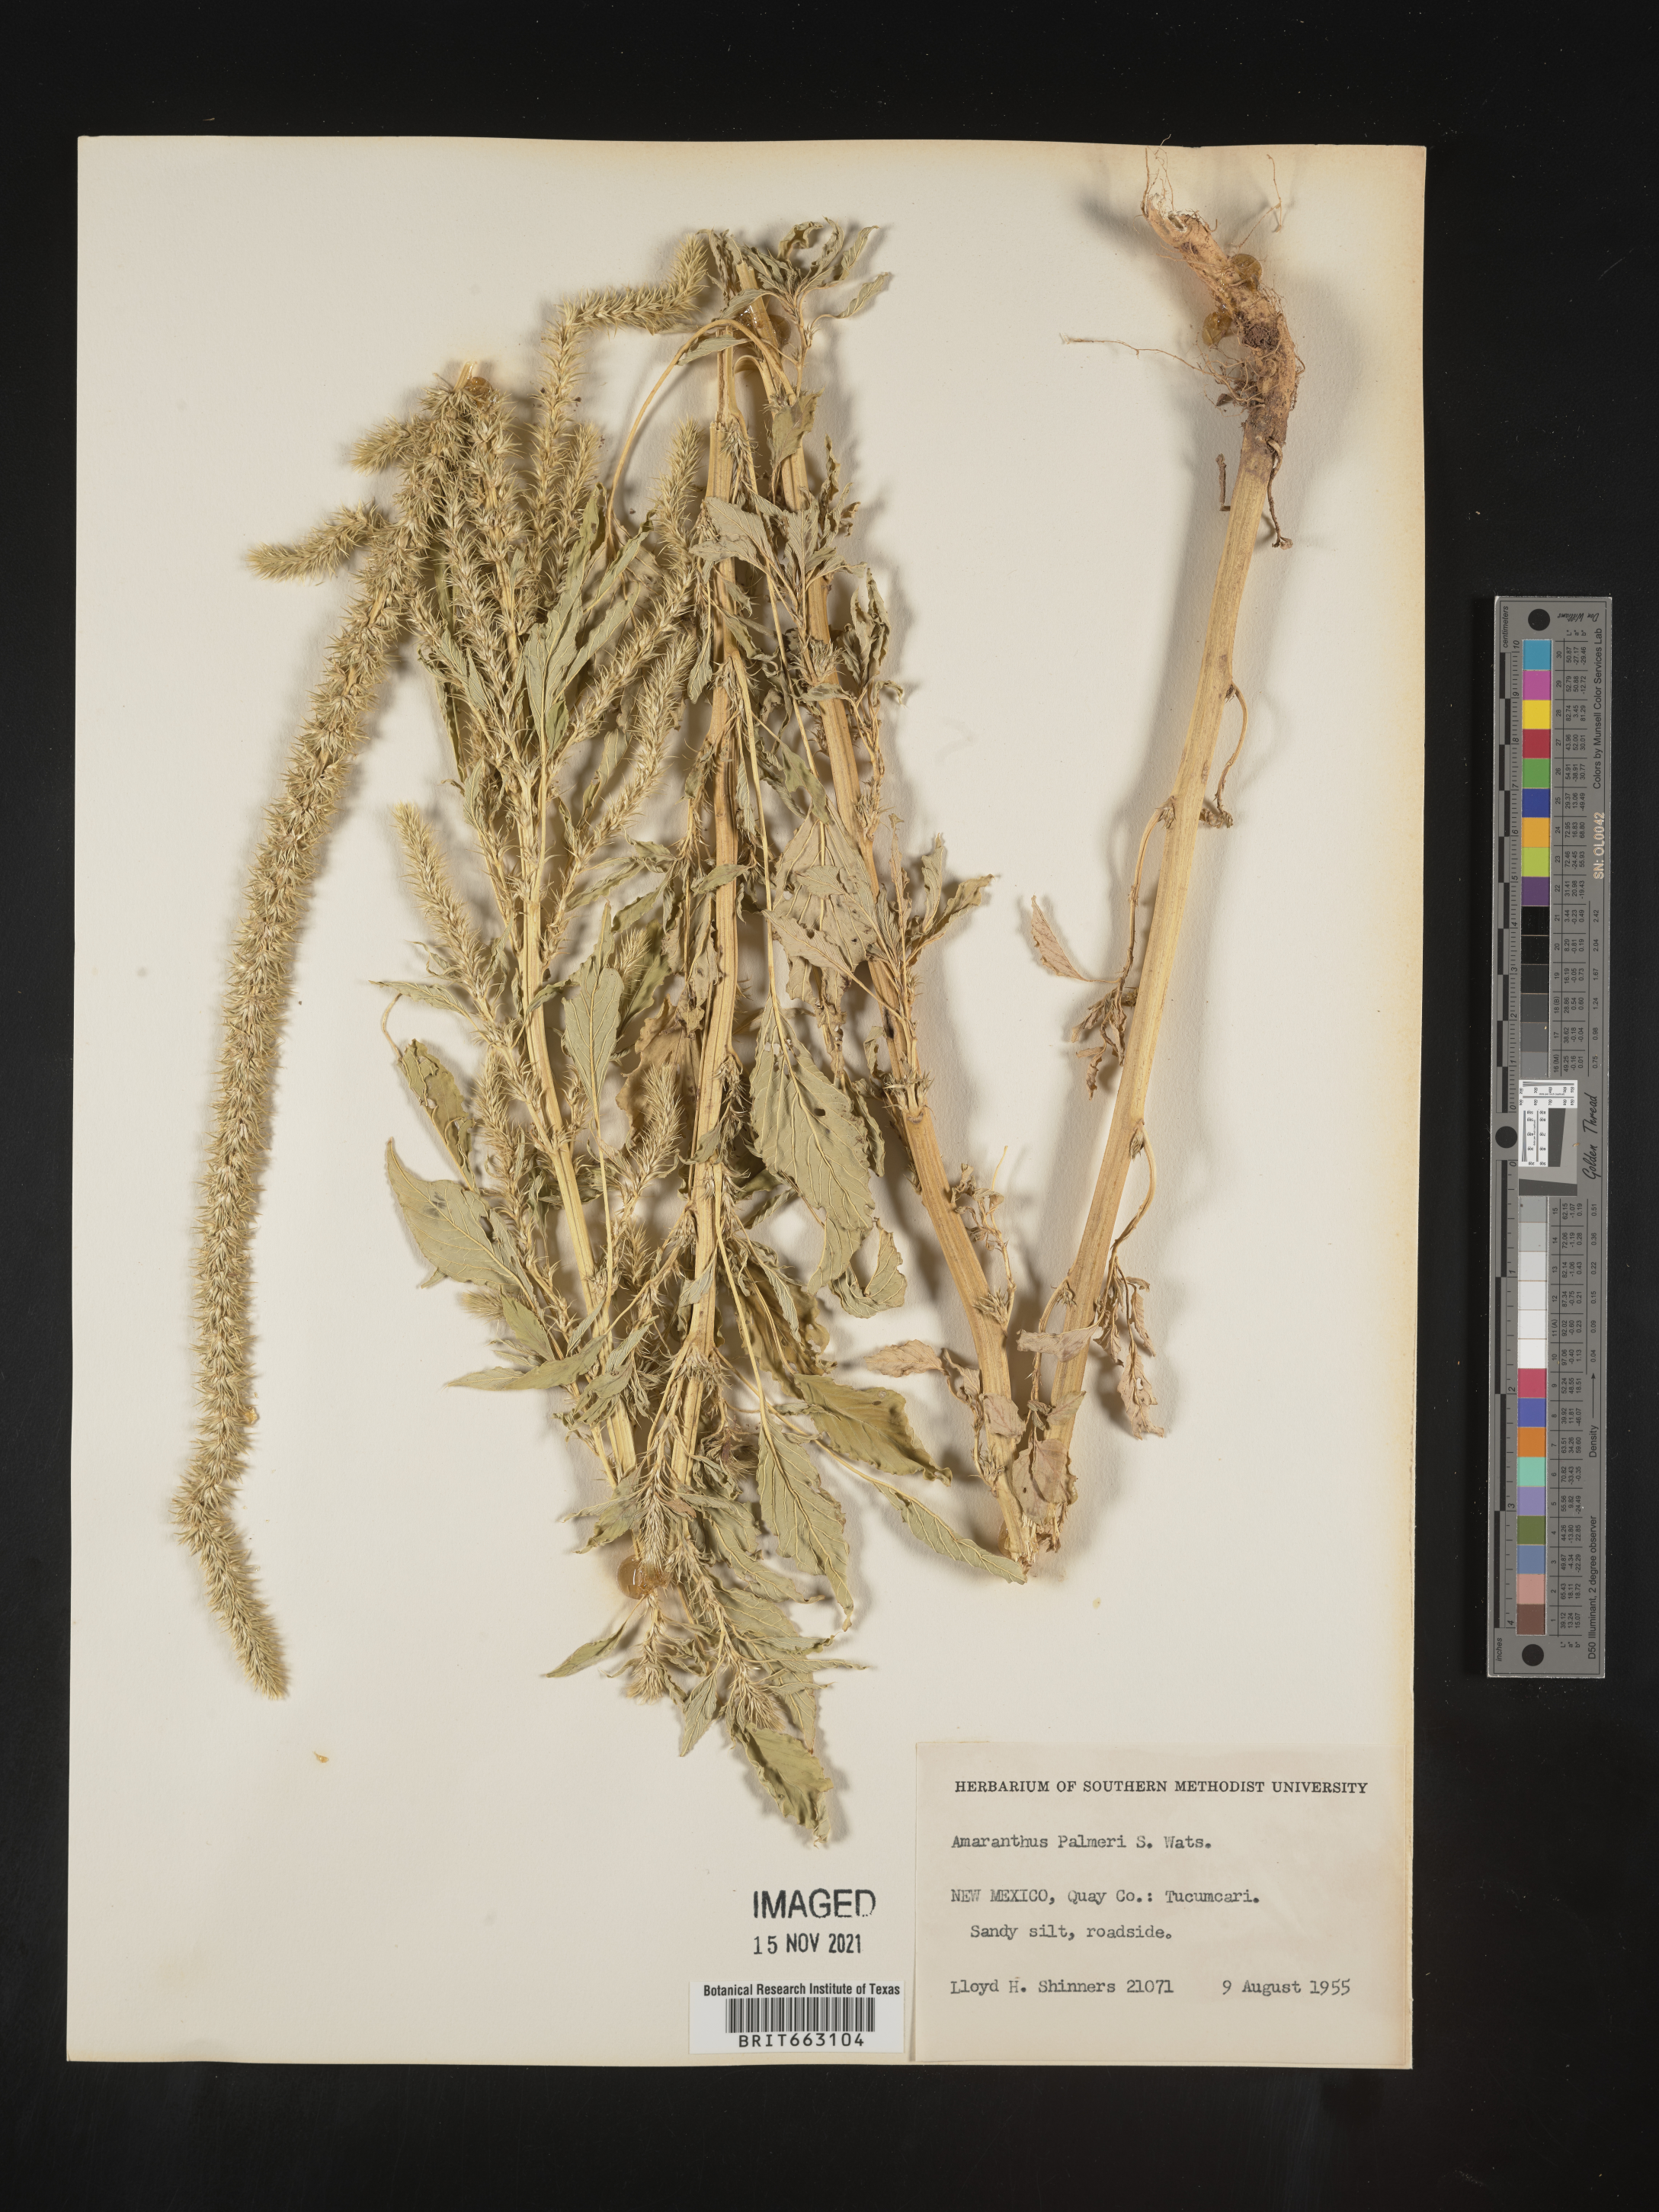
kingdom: Plantae
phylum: Tracheophyta
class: Magnoliopsida
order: Caryophyllales
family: Amaranthaceae
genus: Amaranthus
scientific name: Amaranthus palmeri
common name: Dioecious amaranth
